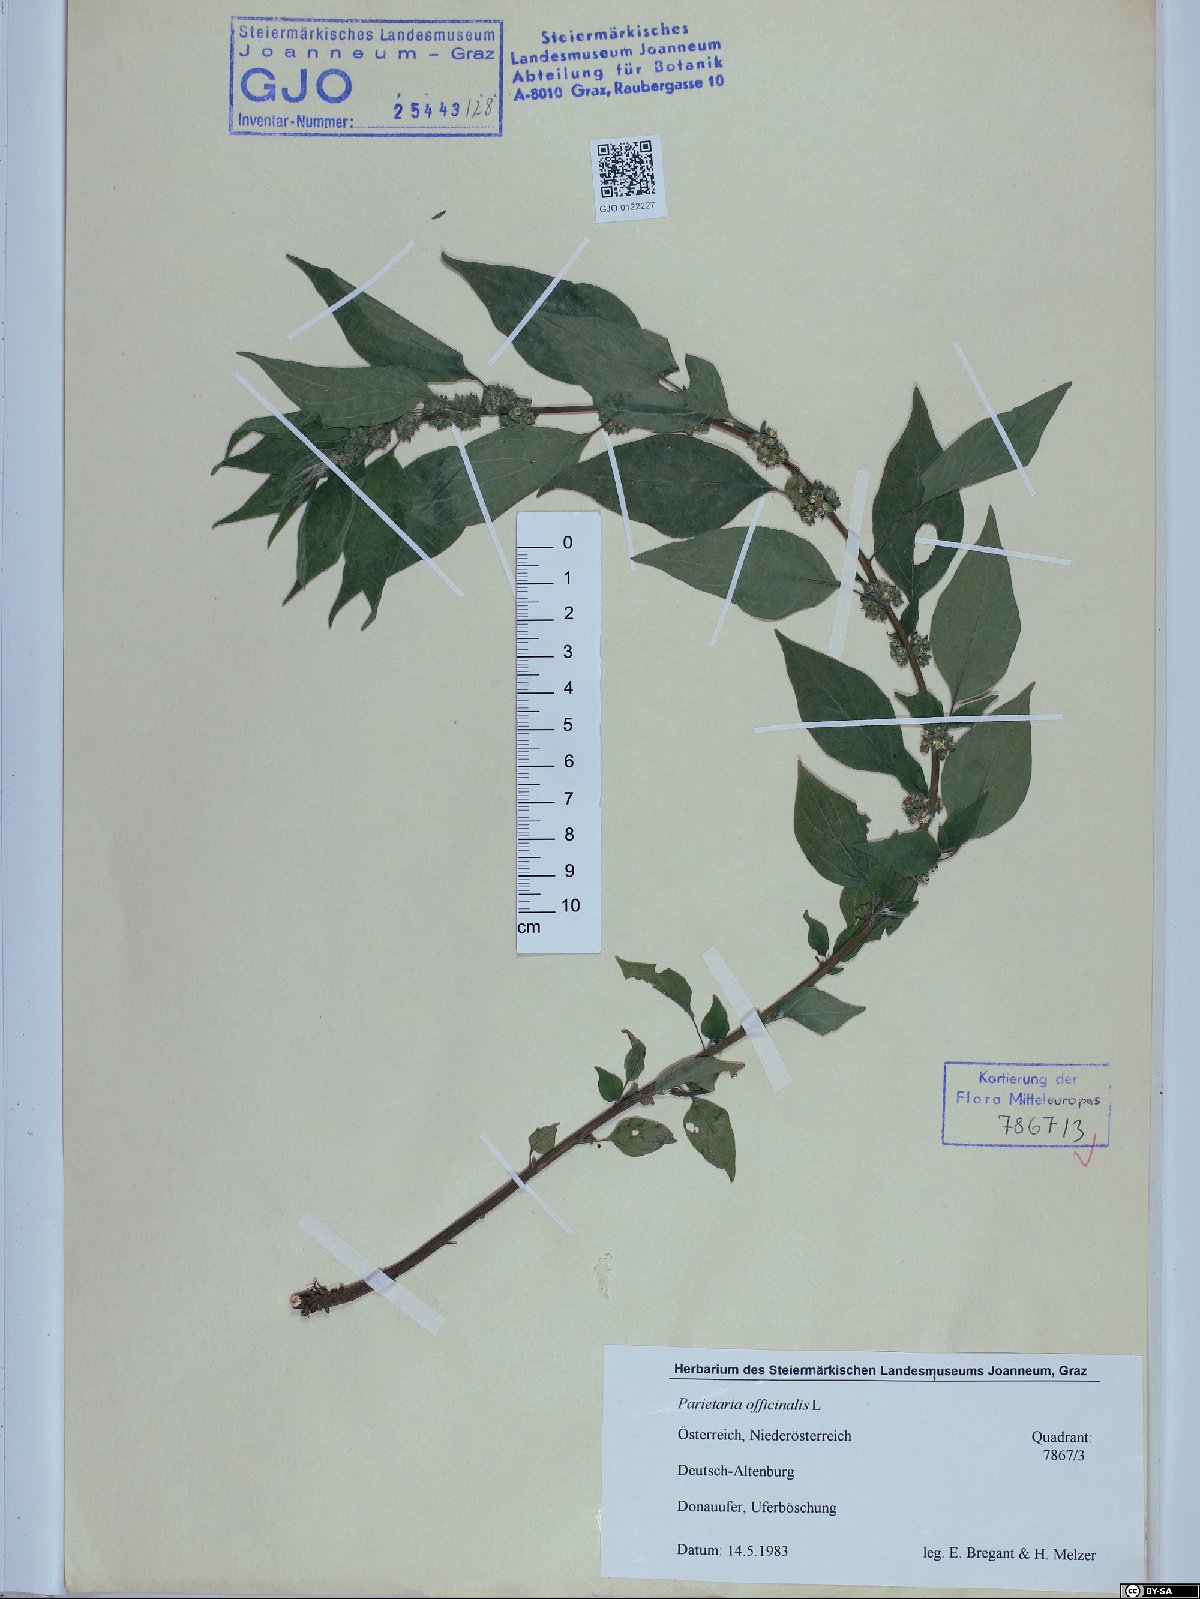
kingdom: Plantae
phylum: Tracheophyta
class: Magnoliopsida
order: Rosales
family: Urticaceae
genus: Parietaria
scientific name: Parietaria officinalis
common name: Eastern pellitory-of-the-wall
